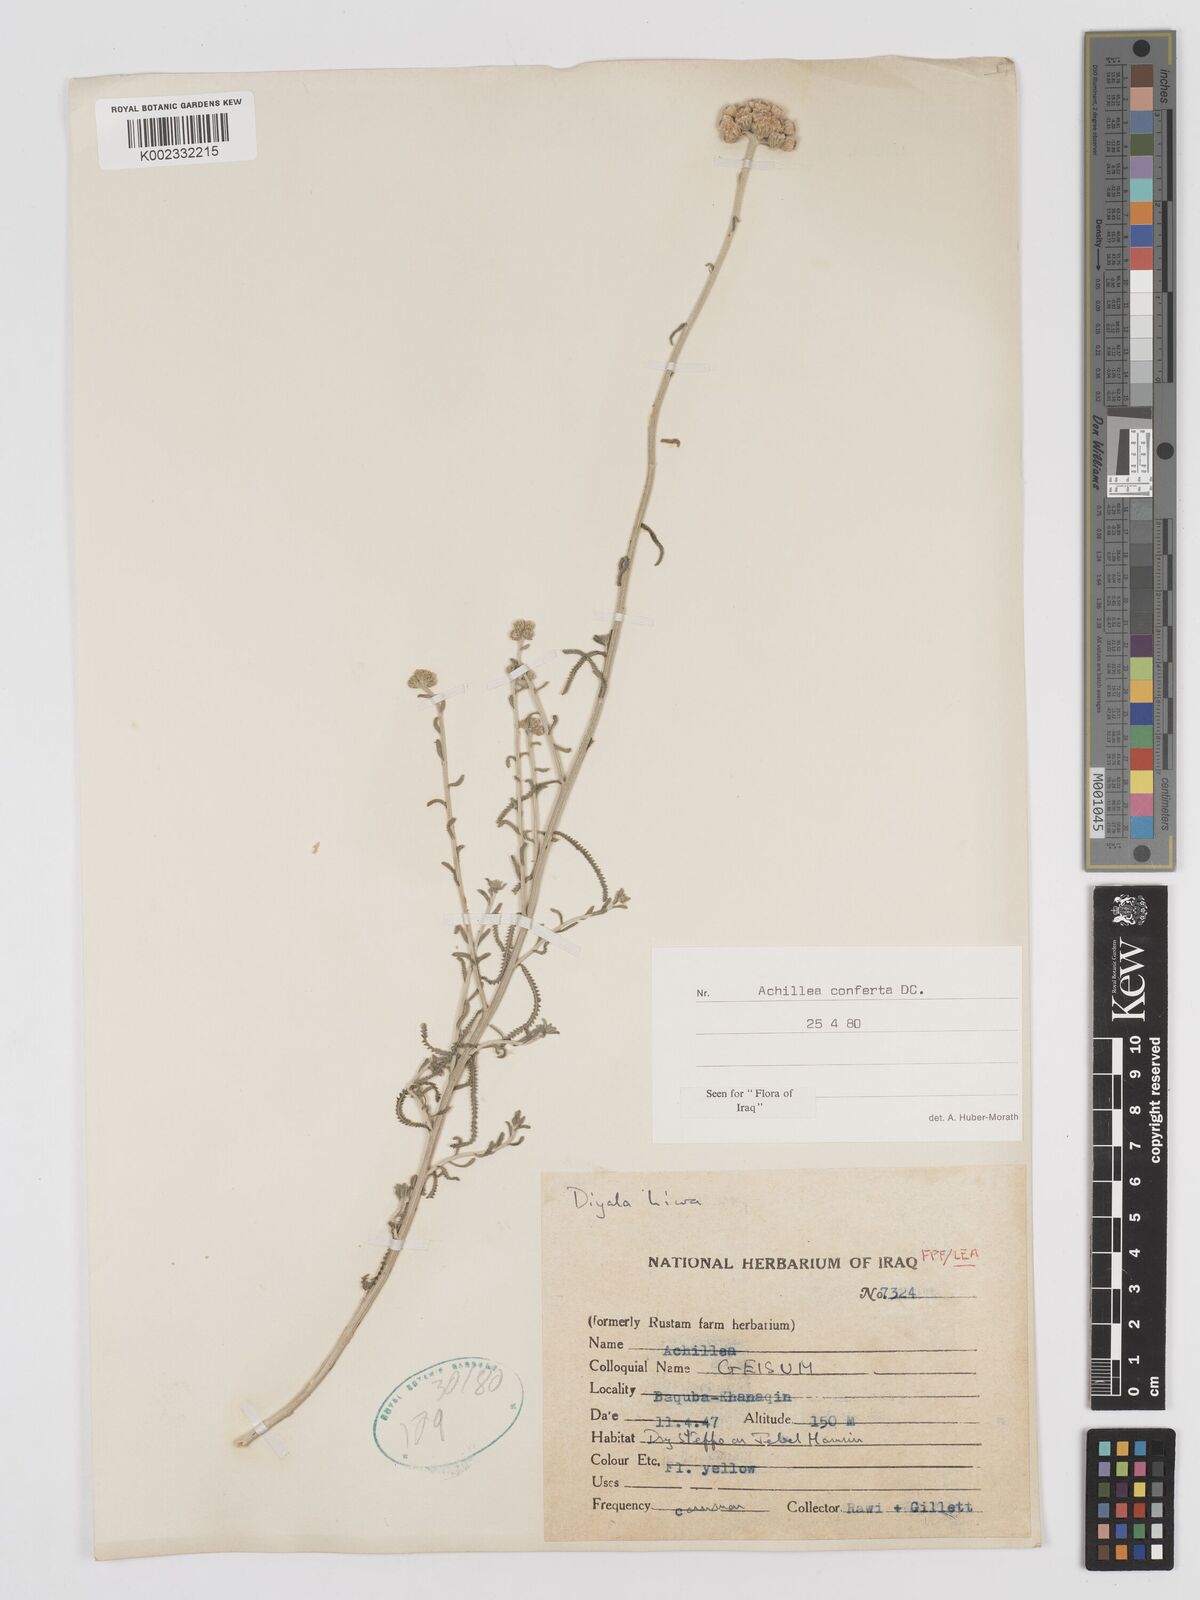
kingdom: Plantae
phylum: Tracheophyta
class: Magnoliopsida
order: Asterales
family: Asteraceae
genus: Achillea
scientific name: Achillea conferta
